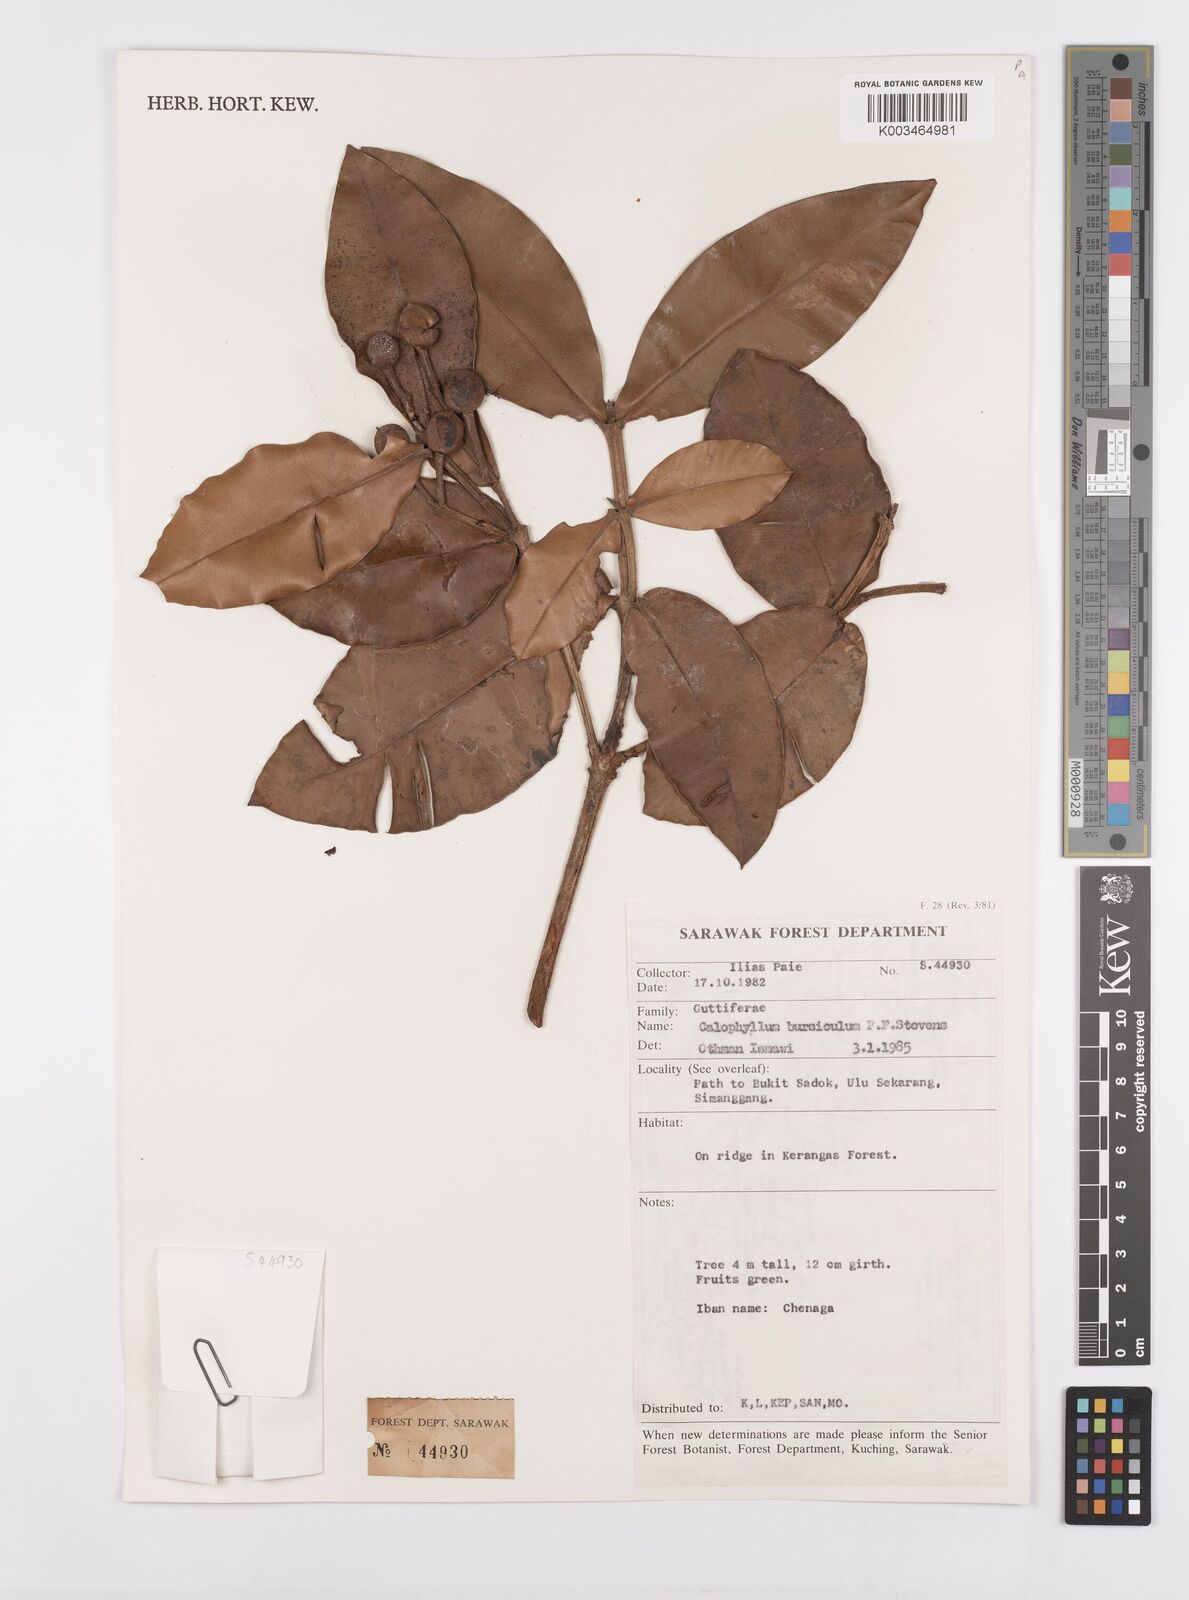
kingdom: Plantae
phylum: Tracheophyta
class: Magnoliopsida
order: Malpighiales
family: Calophyllaceae
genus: Calophyllum
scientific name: Calophyllum
